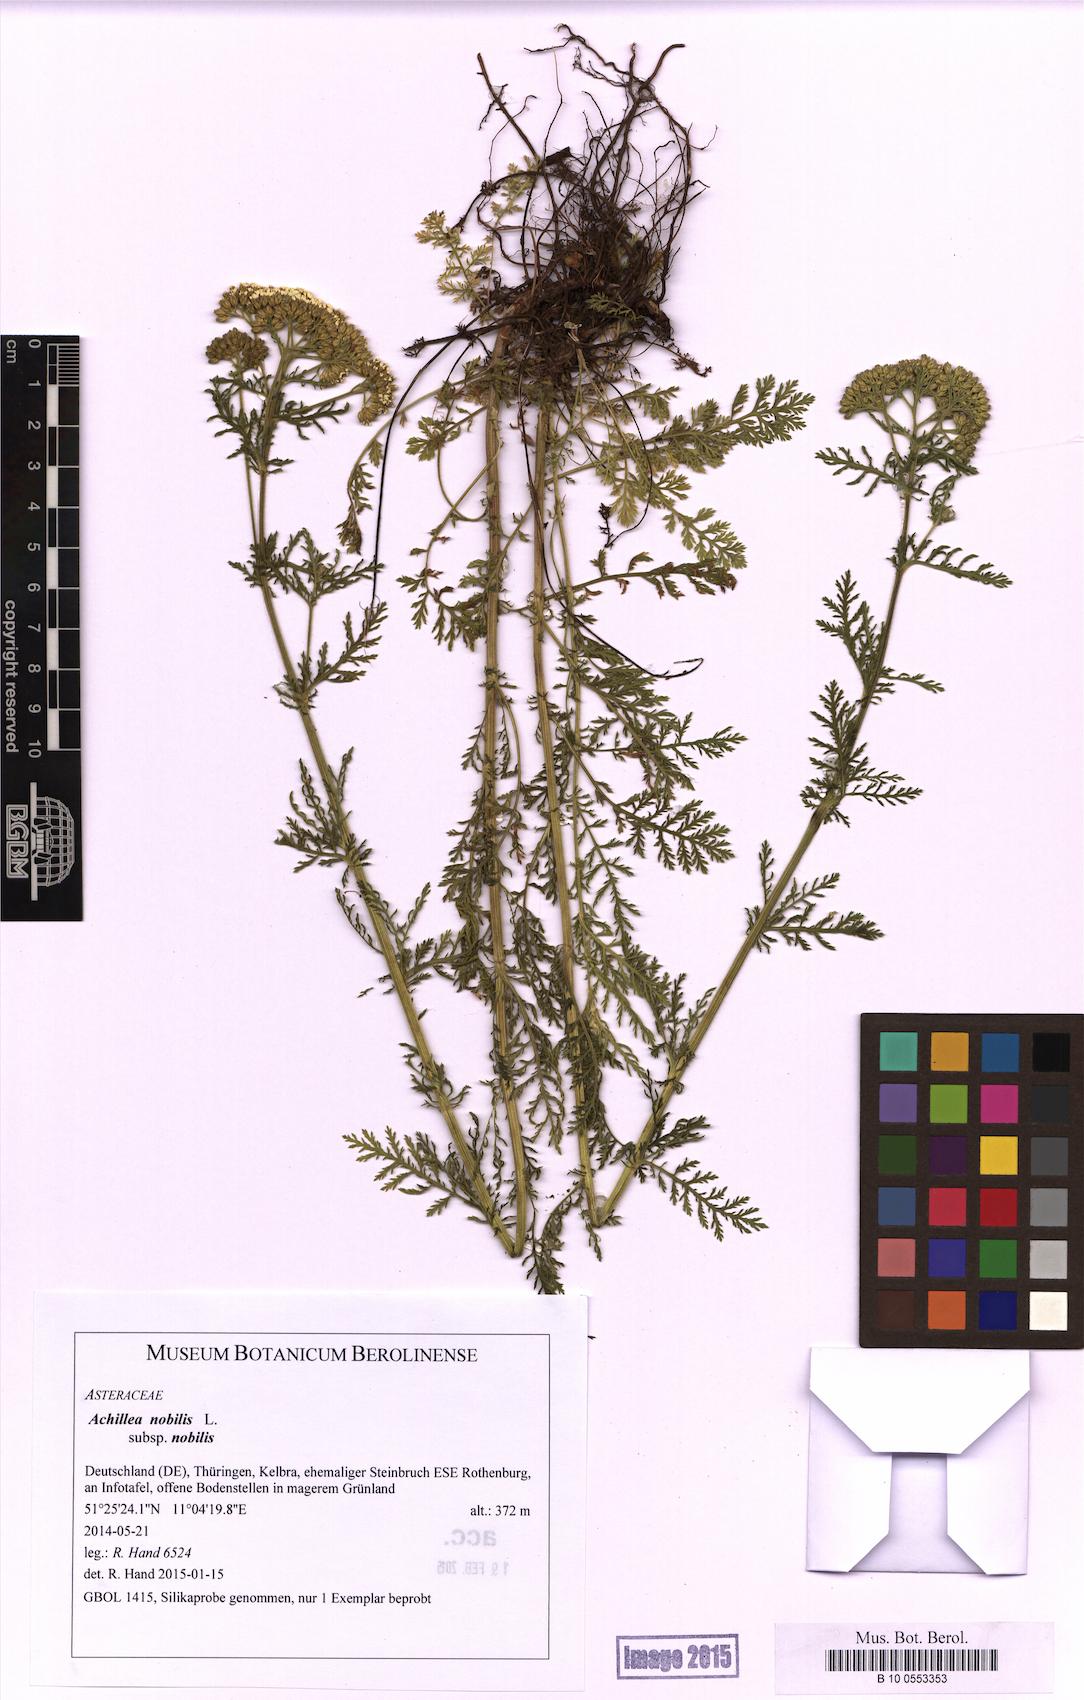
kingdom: Plantae
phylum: Tracheophyta
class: Magnoliopsida
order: Asterales
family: Asteraceae
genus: Achillea
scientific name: Achillea nobilis
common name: Noble yarrow
